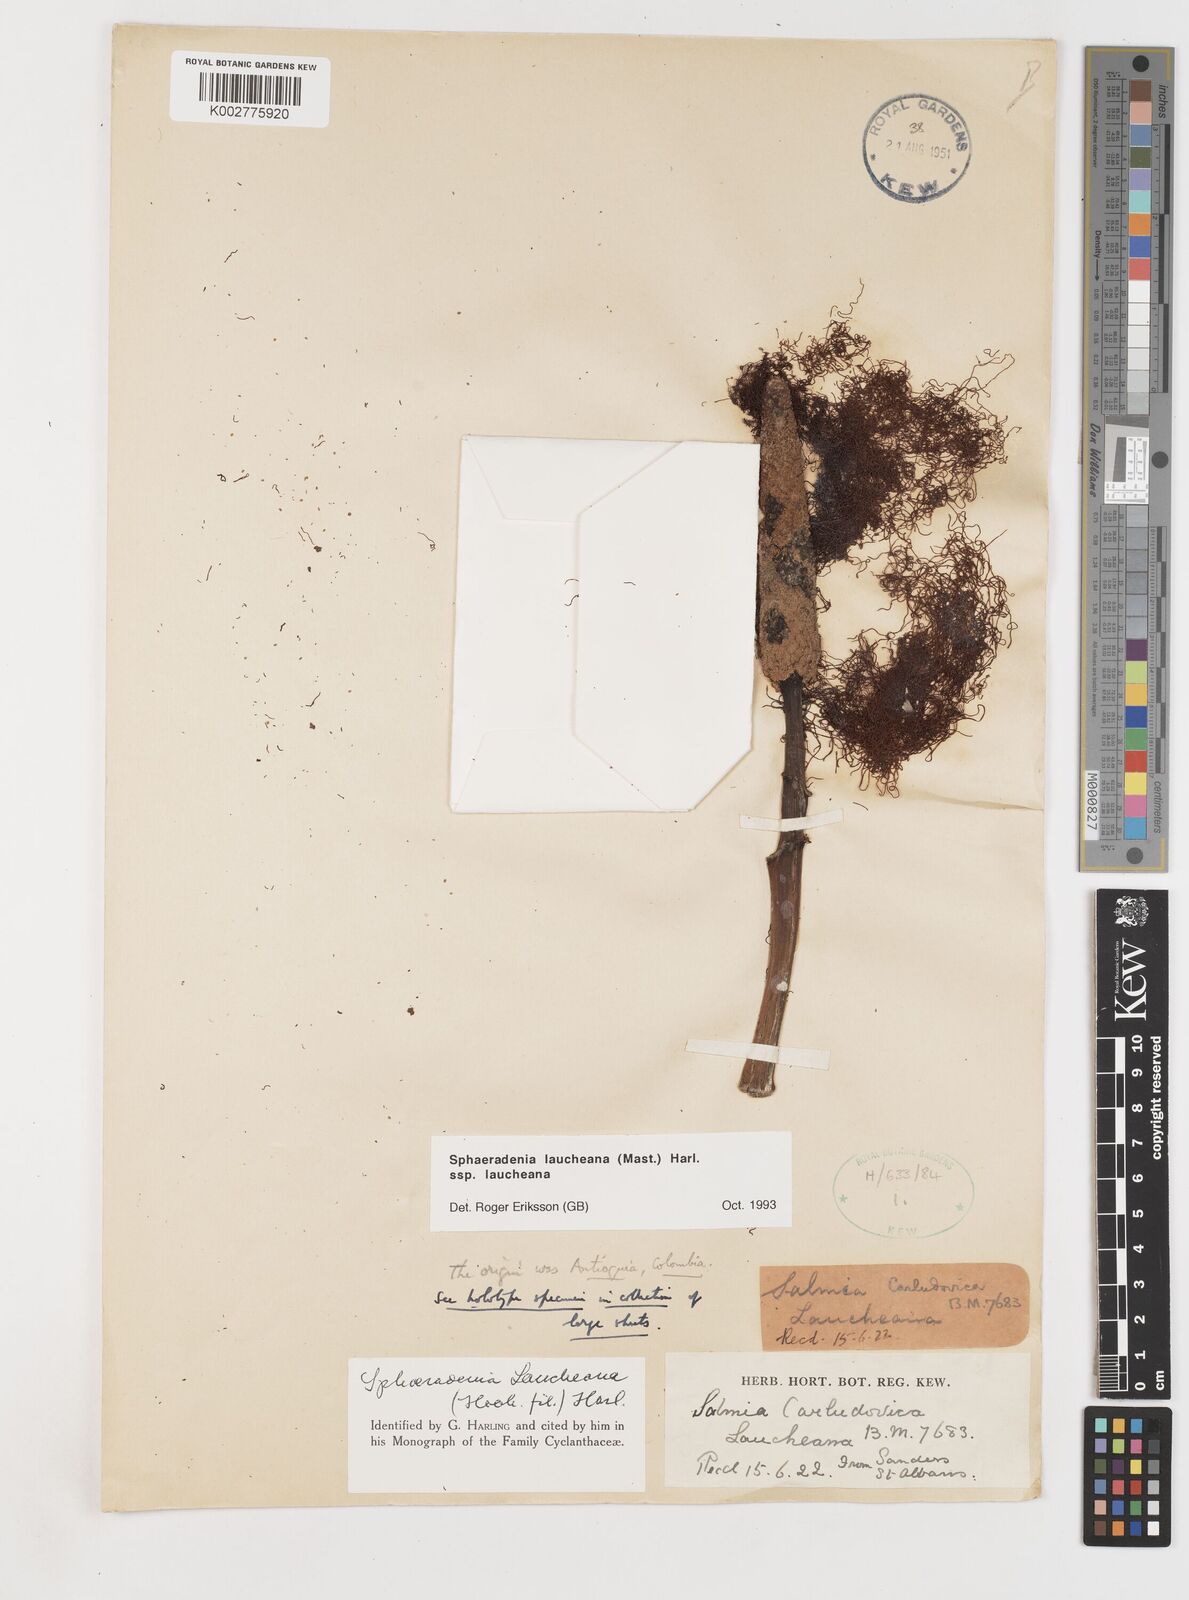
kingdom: Plantae
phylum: Tracheophyta
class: Liliopsida
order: Pandanales
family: Cyclanthaceae
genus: Sphaeradenia
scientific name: Sphaeradenia laucheana
